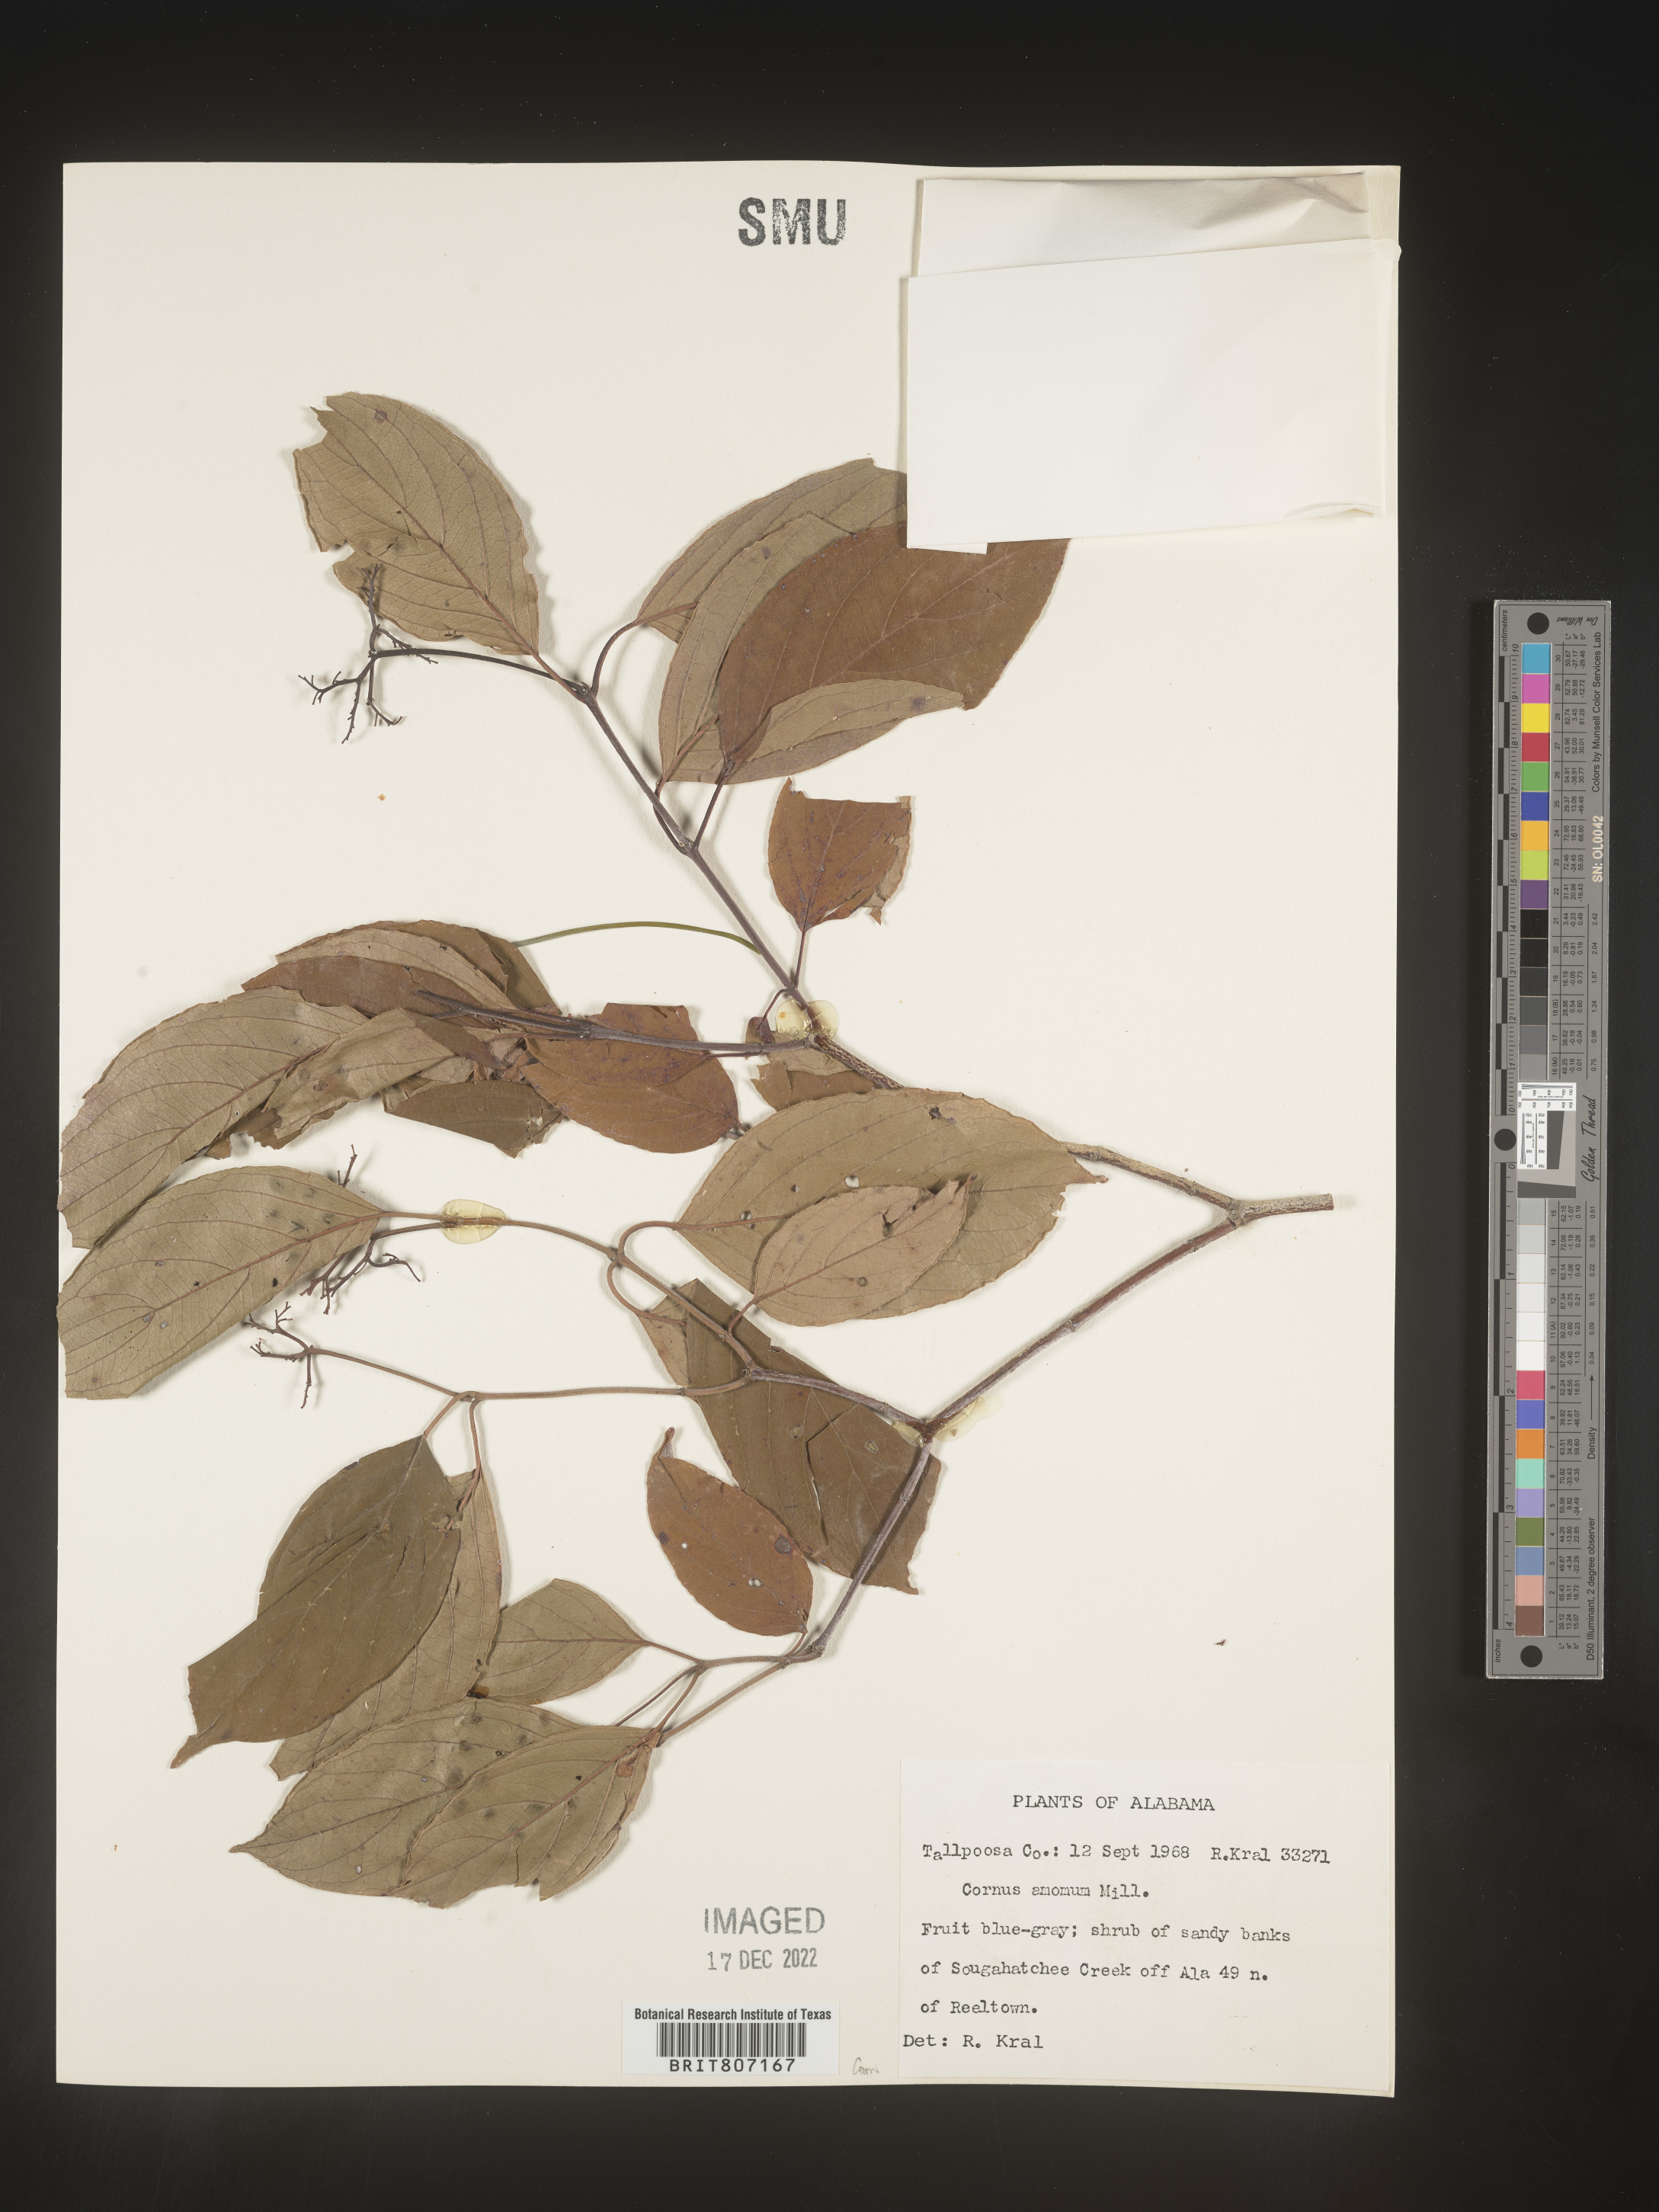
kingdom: Plantae
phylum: Tracheophyta
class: Magnoliopsida
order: Cornales
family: Cornaceae
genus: Cornus
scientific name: Cornus amomum
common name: Silky dogwood
